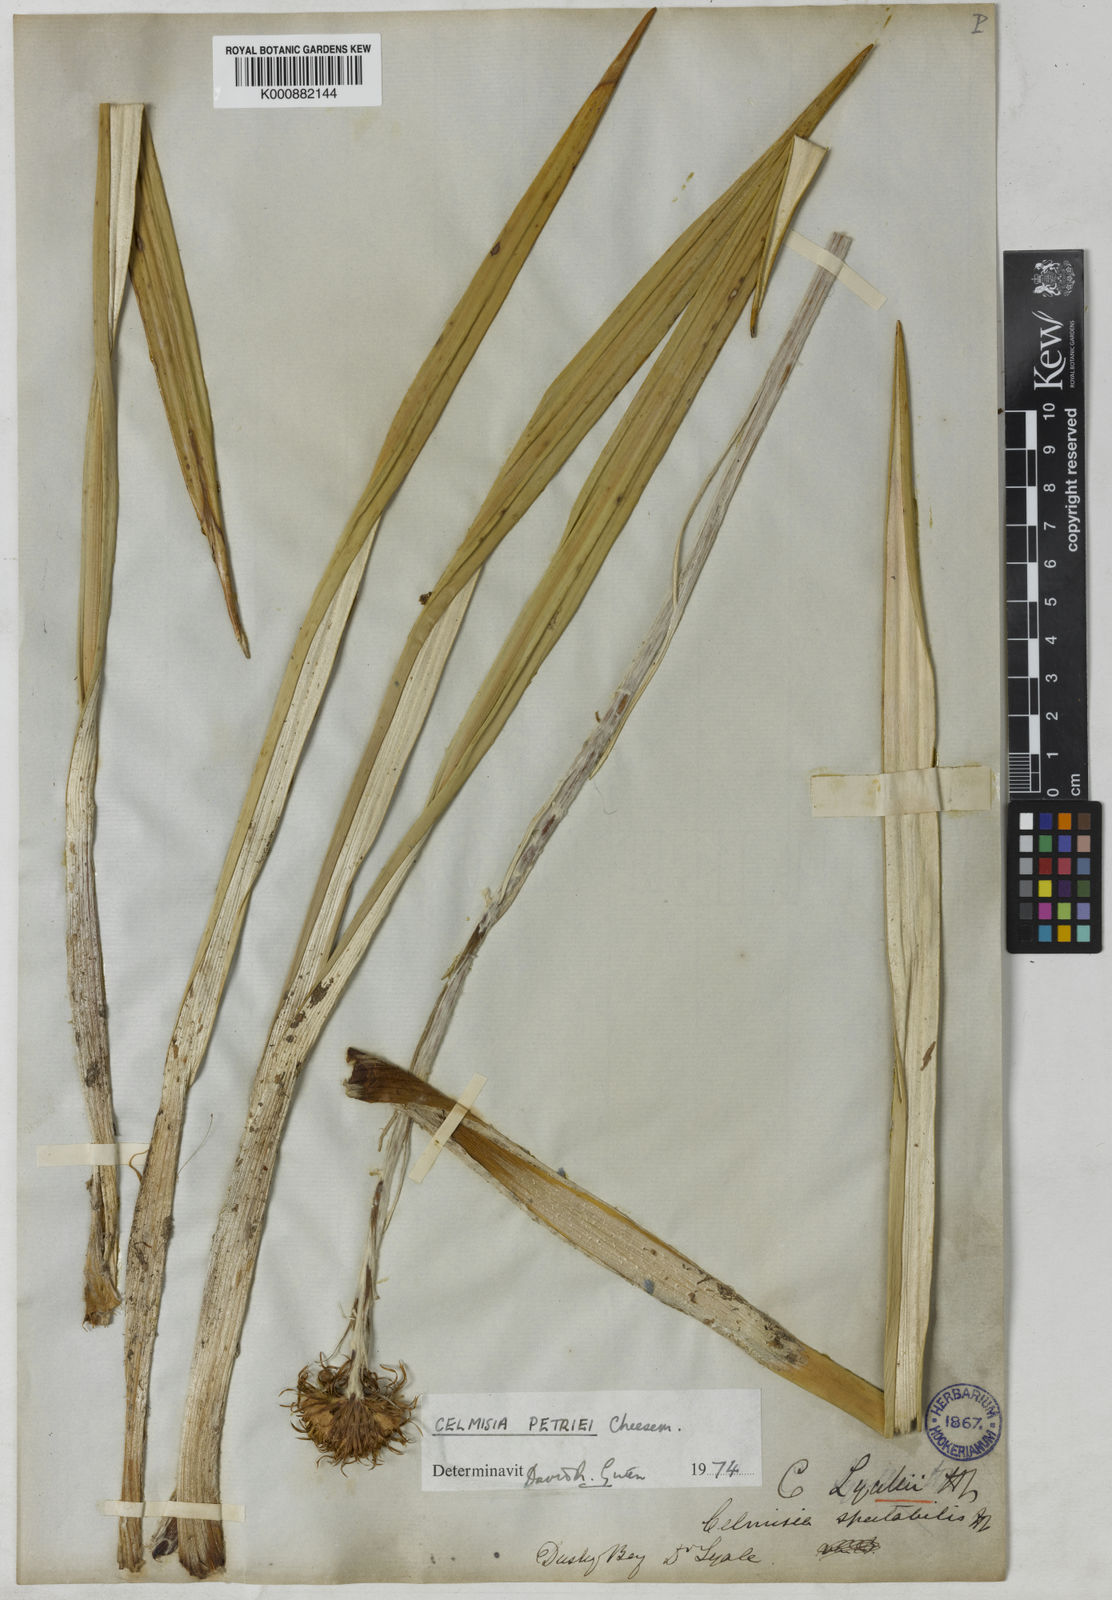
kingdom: Plantae
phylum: Tracheophyta
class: Magnoliopsida
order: Asterales
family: Asteraceae
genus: Celmisia
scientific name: Celmisia petriei
